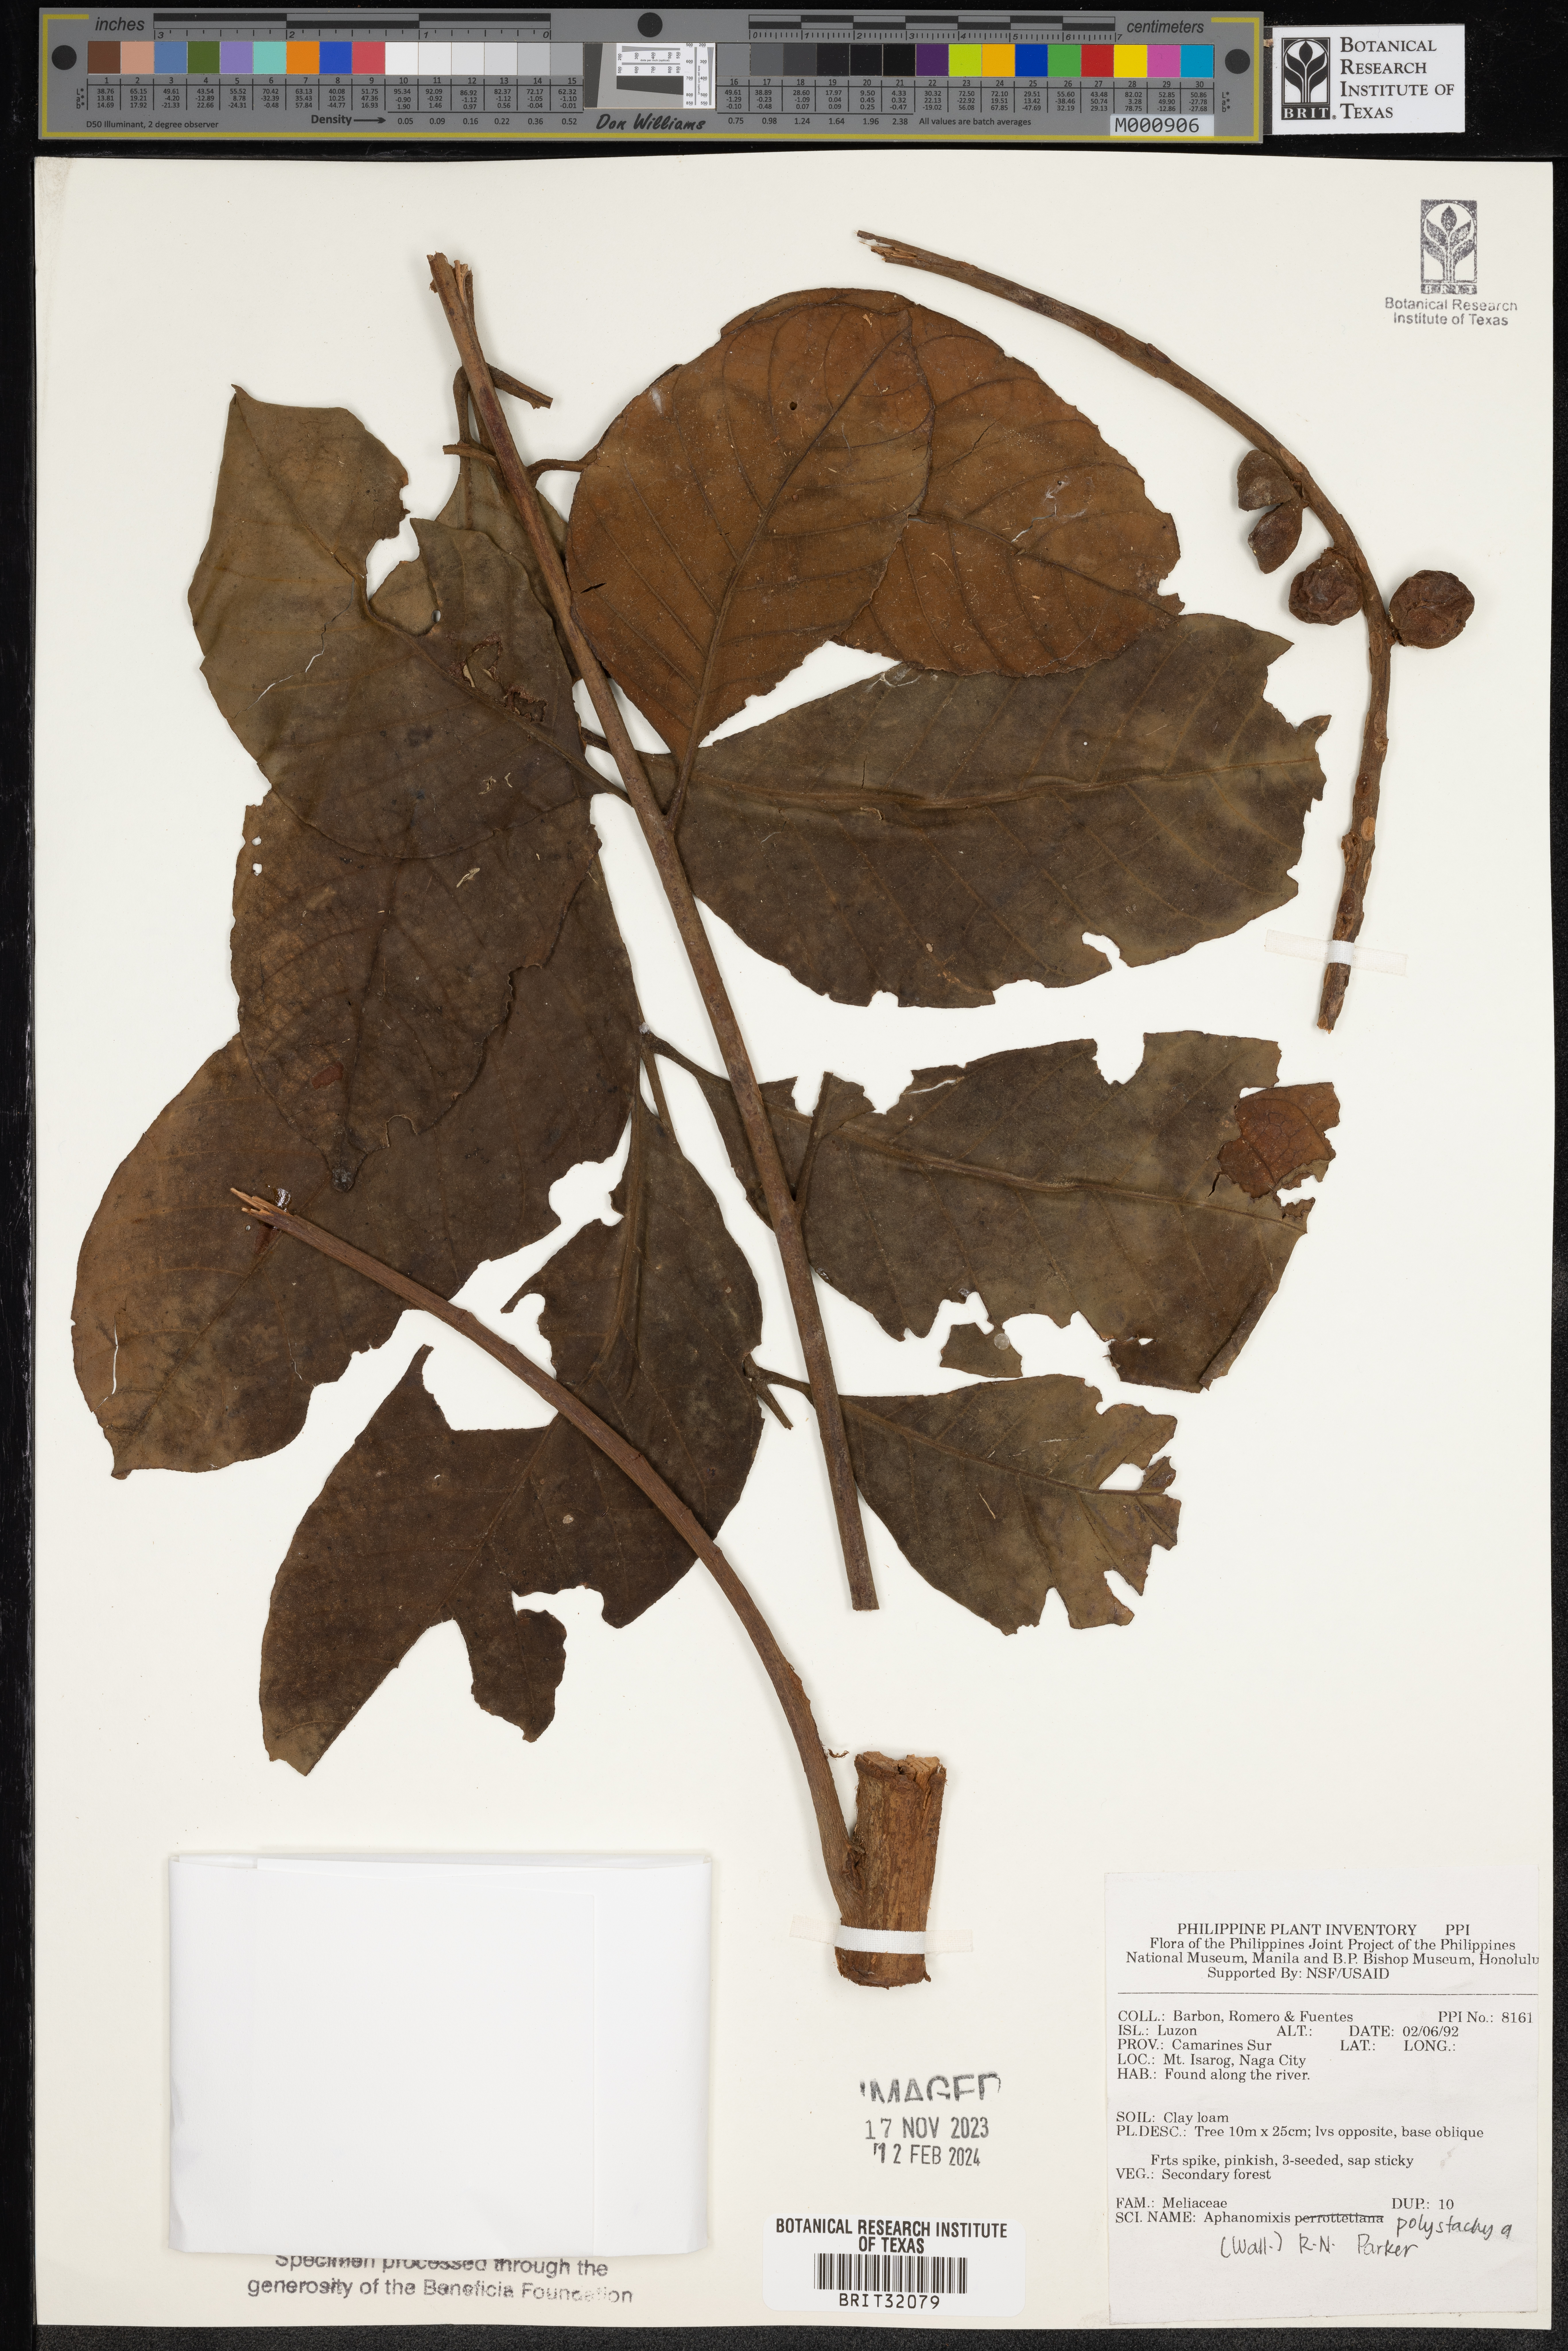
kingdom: Plantae
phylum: Tracheophyta
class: Magnoliopsida
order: Sapindales
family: Meliaceae
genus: Aphanamixis
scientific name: Aphanamixis polystachya
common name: Pithraj tree
